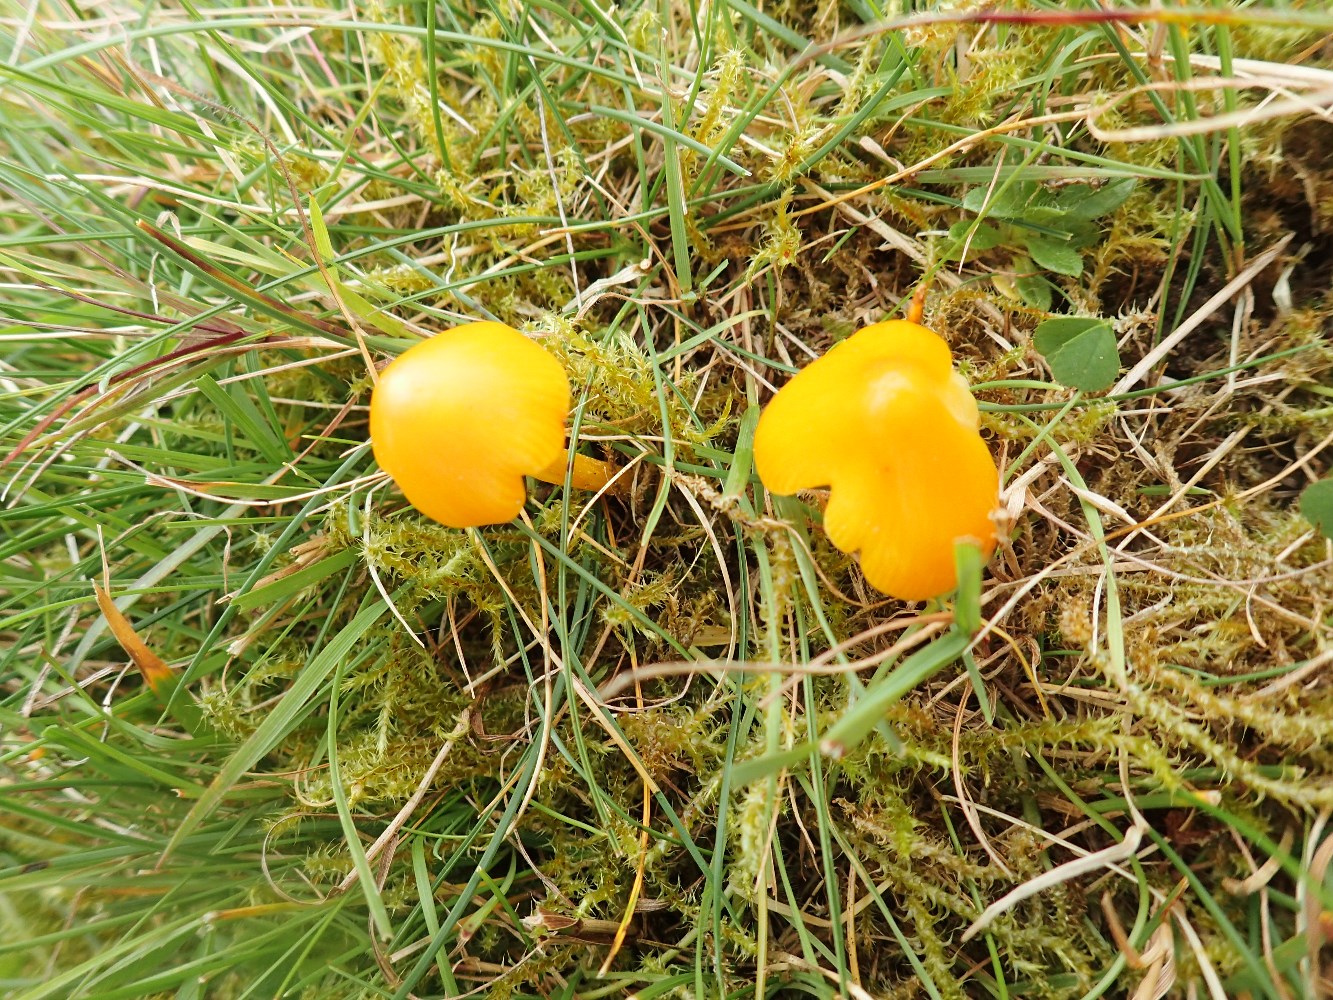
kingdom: Fungi
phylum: Basidiomycota
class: Agaricomycetes
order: Agaricales
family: Hygrophoraceae
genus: Hygrocybe
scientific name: Hygrocybe chlorophana
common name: gul vokshat
